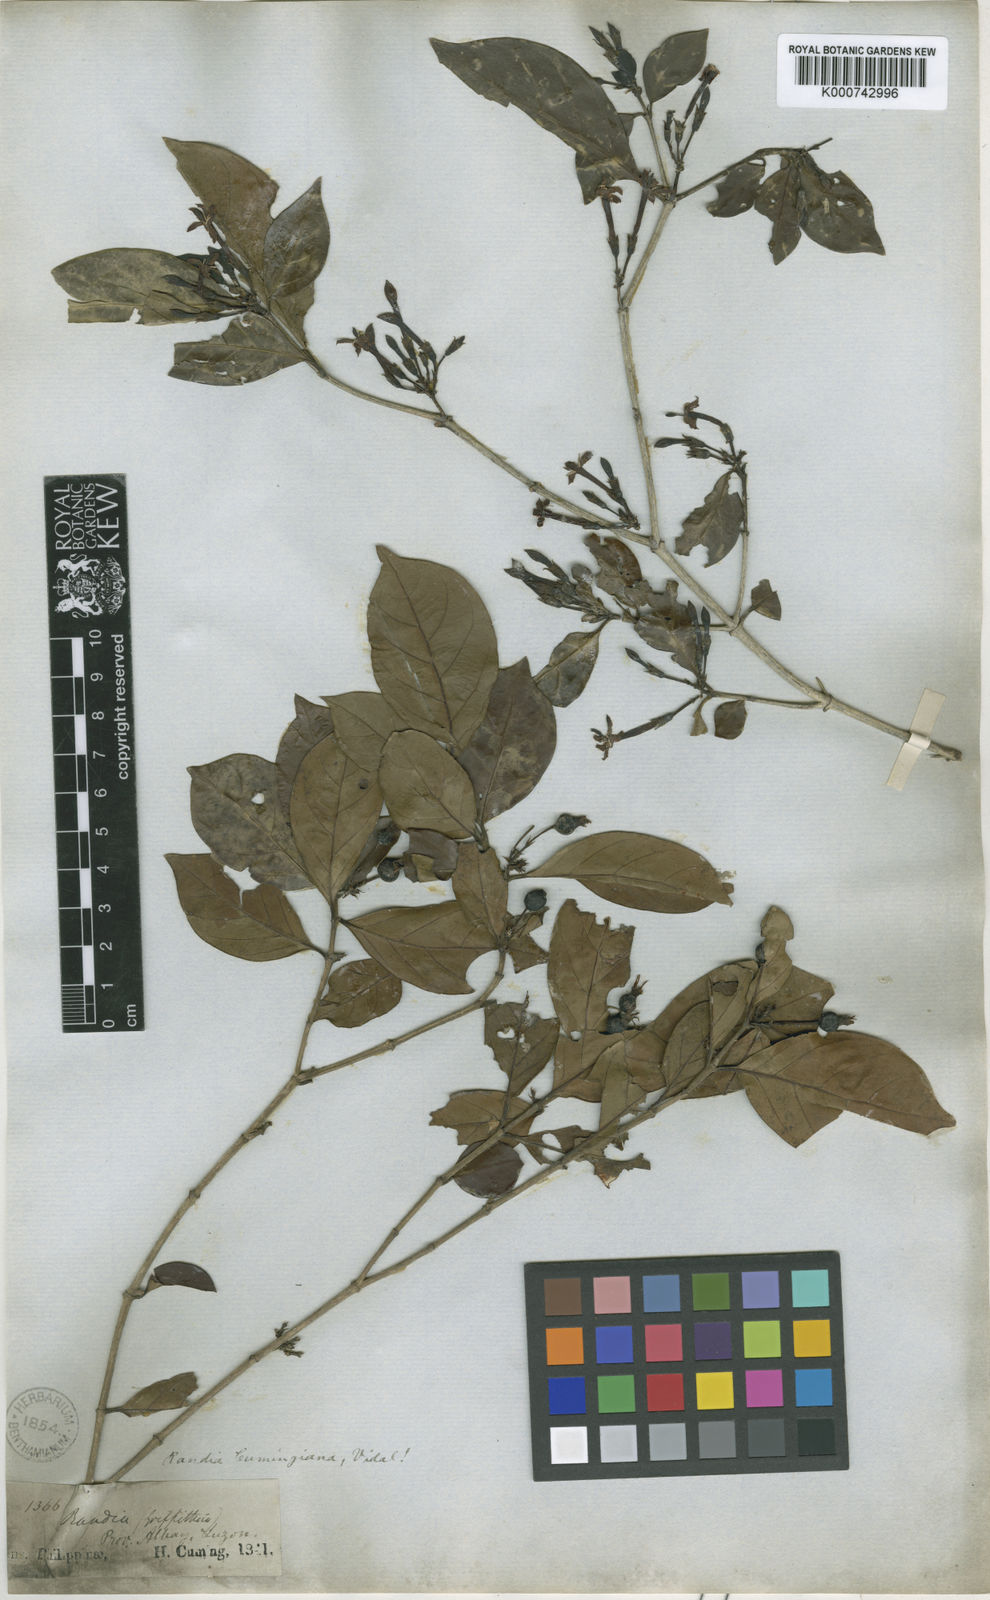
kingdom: Plantae
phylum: Tracheophyta
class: Magnoliopsida
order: Gentianales
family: Rubiaceae
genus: Benkara
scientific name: Benkara microcarpa
